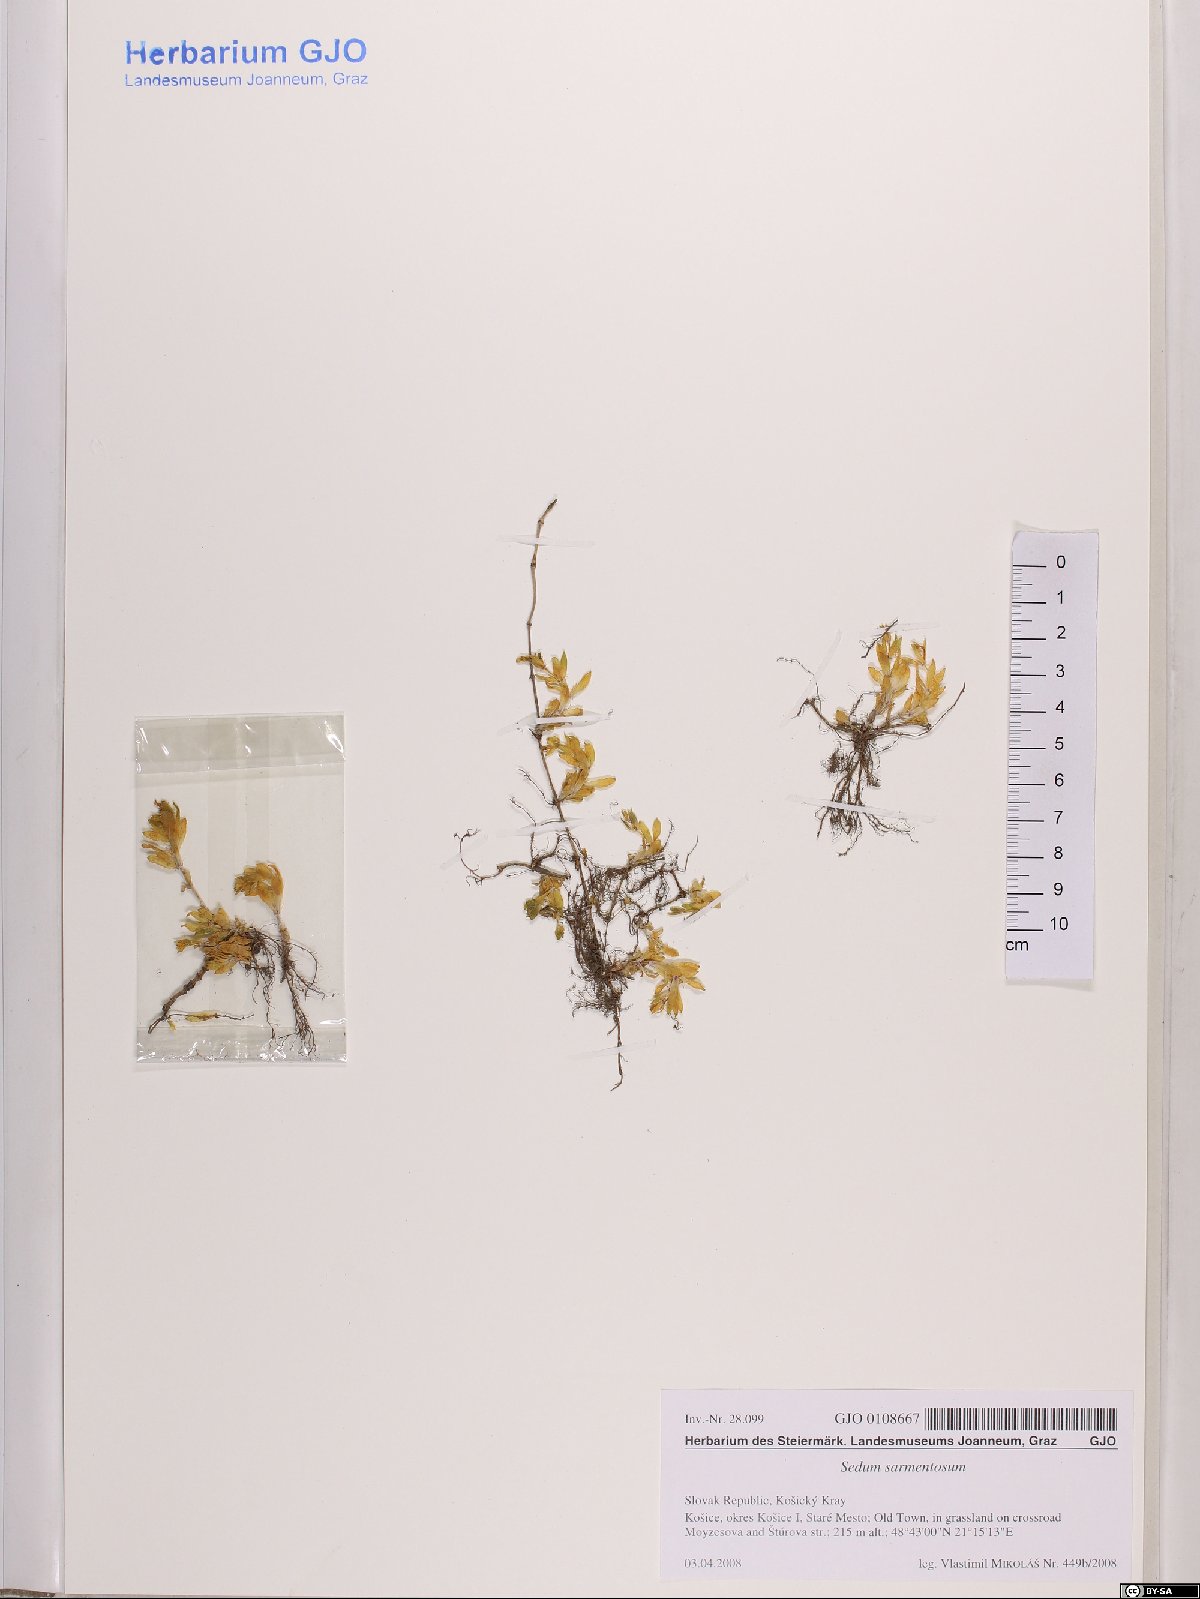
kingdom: Plantae
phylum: Tracheophyta
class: Magnoliopsida
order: Saxifragales
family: Crassulaceae
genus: Sedum
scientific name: Sedum sarmentosum
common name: Stringy stonecrop
